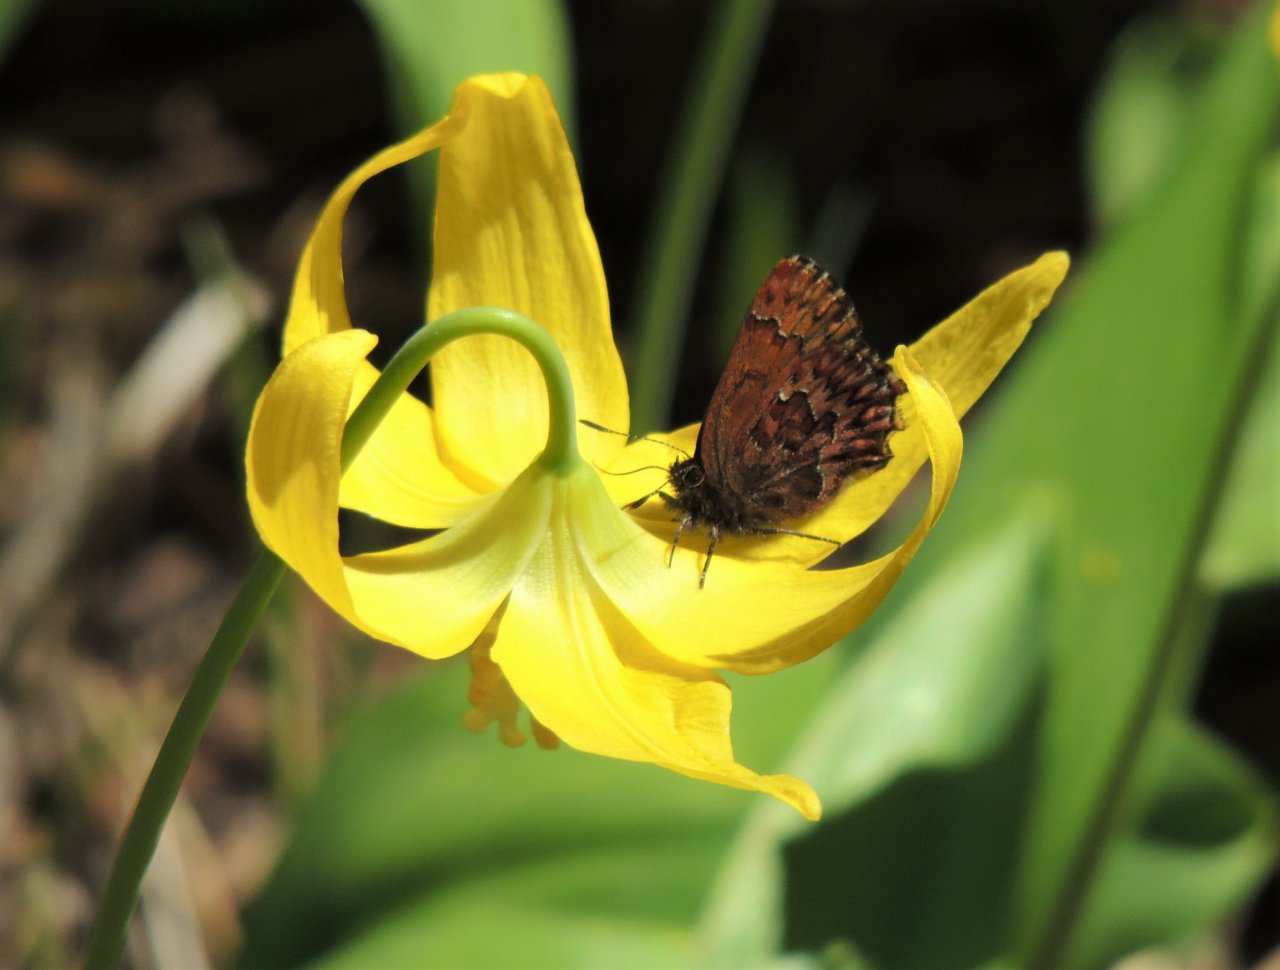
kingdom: Animalia
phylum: Arthropoda
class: Insecta
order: Lepidoptera
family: Lycaenidae
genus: Incisalia
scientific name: Incisalia eryphon
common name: Western Pine Elfin
